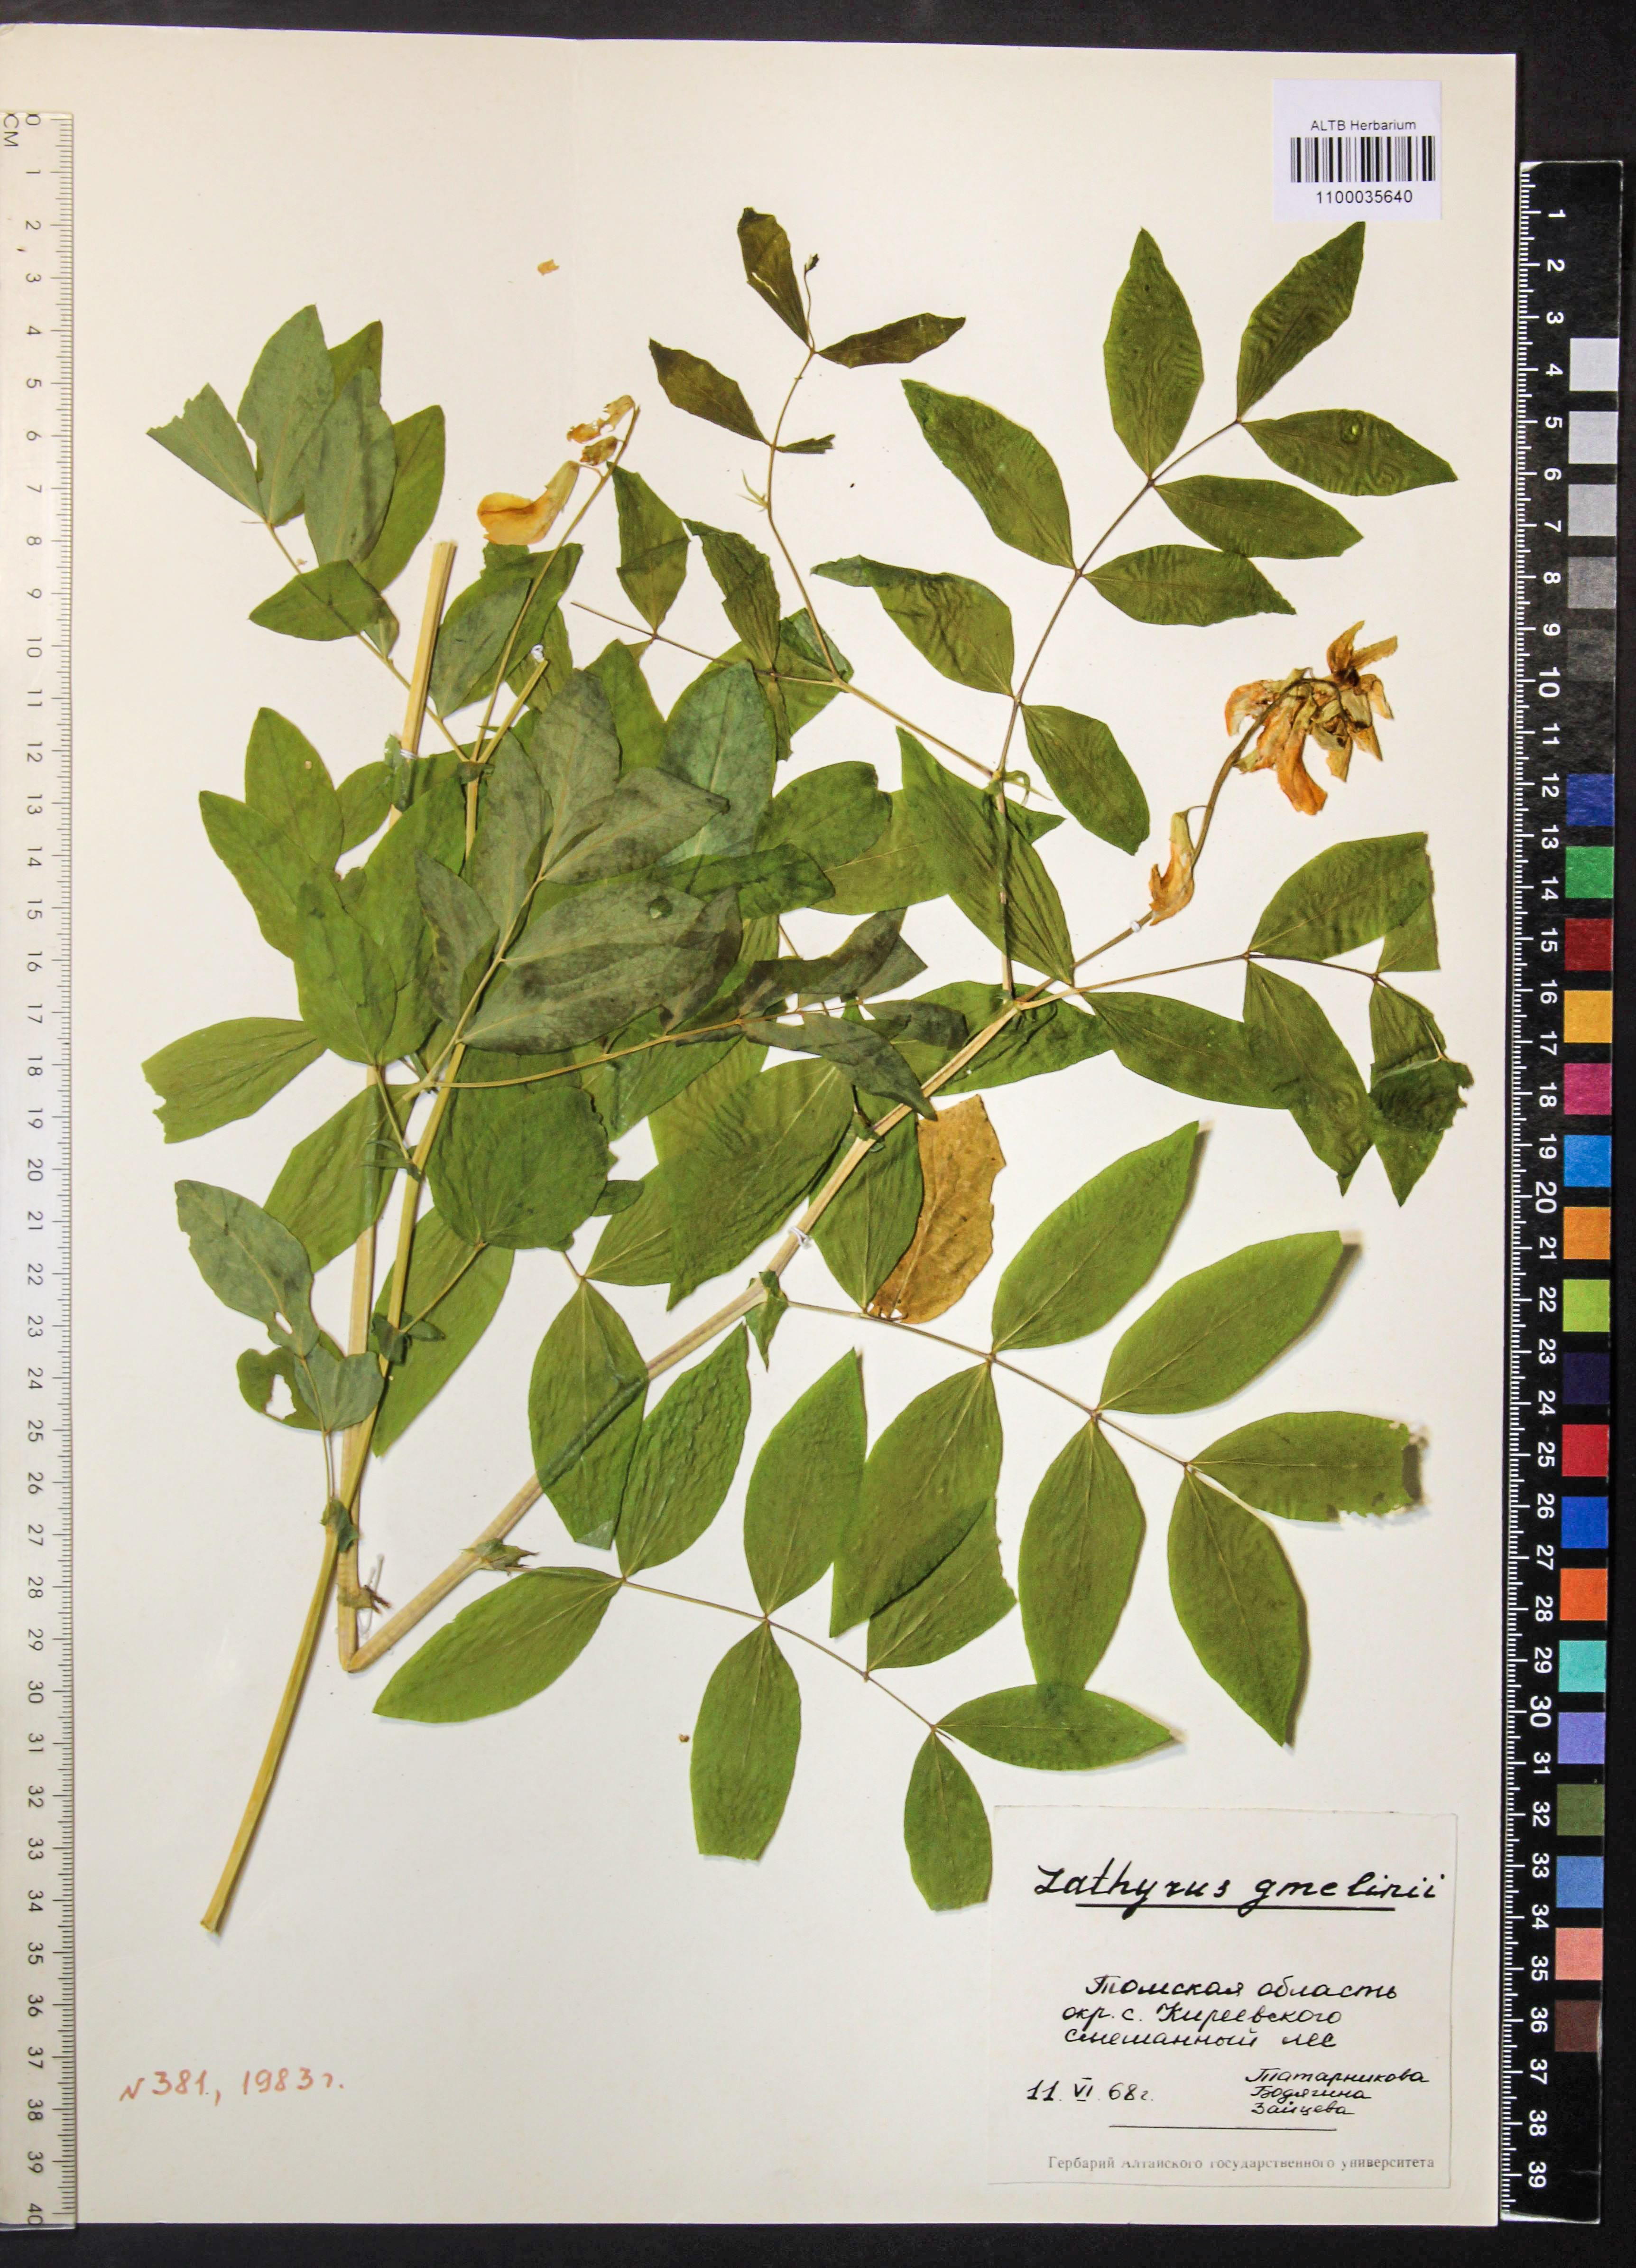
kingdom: Plantae
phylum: Tracheophyta
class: Magnoliopsida
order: Fabales
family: Fabaceae
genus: Lathyrus
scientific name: Lathyrus gmelinii
